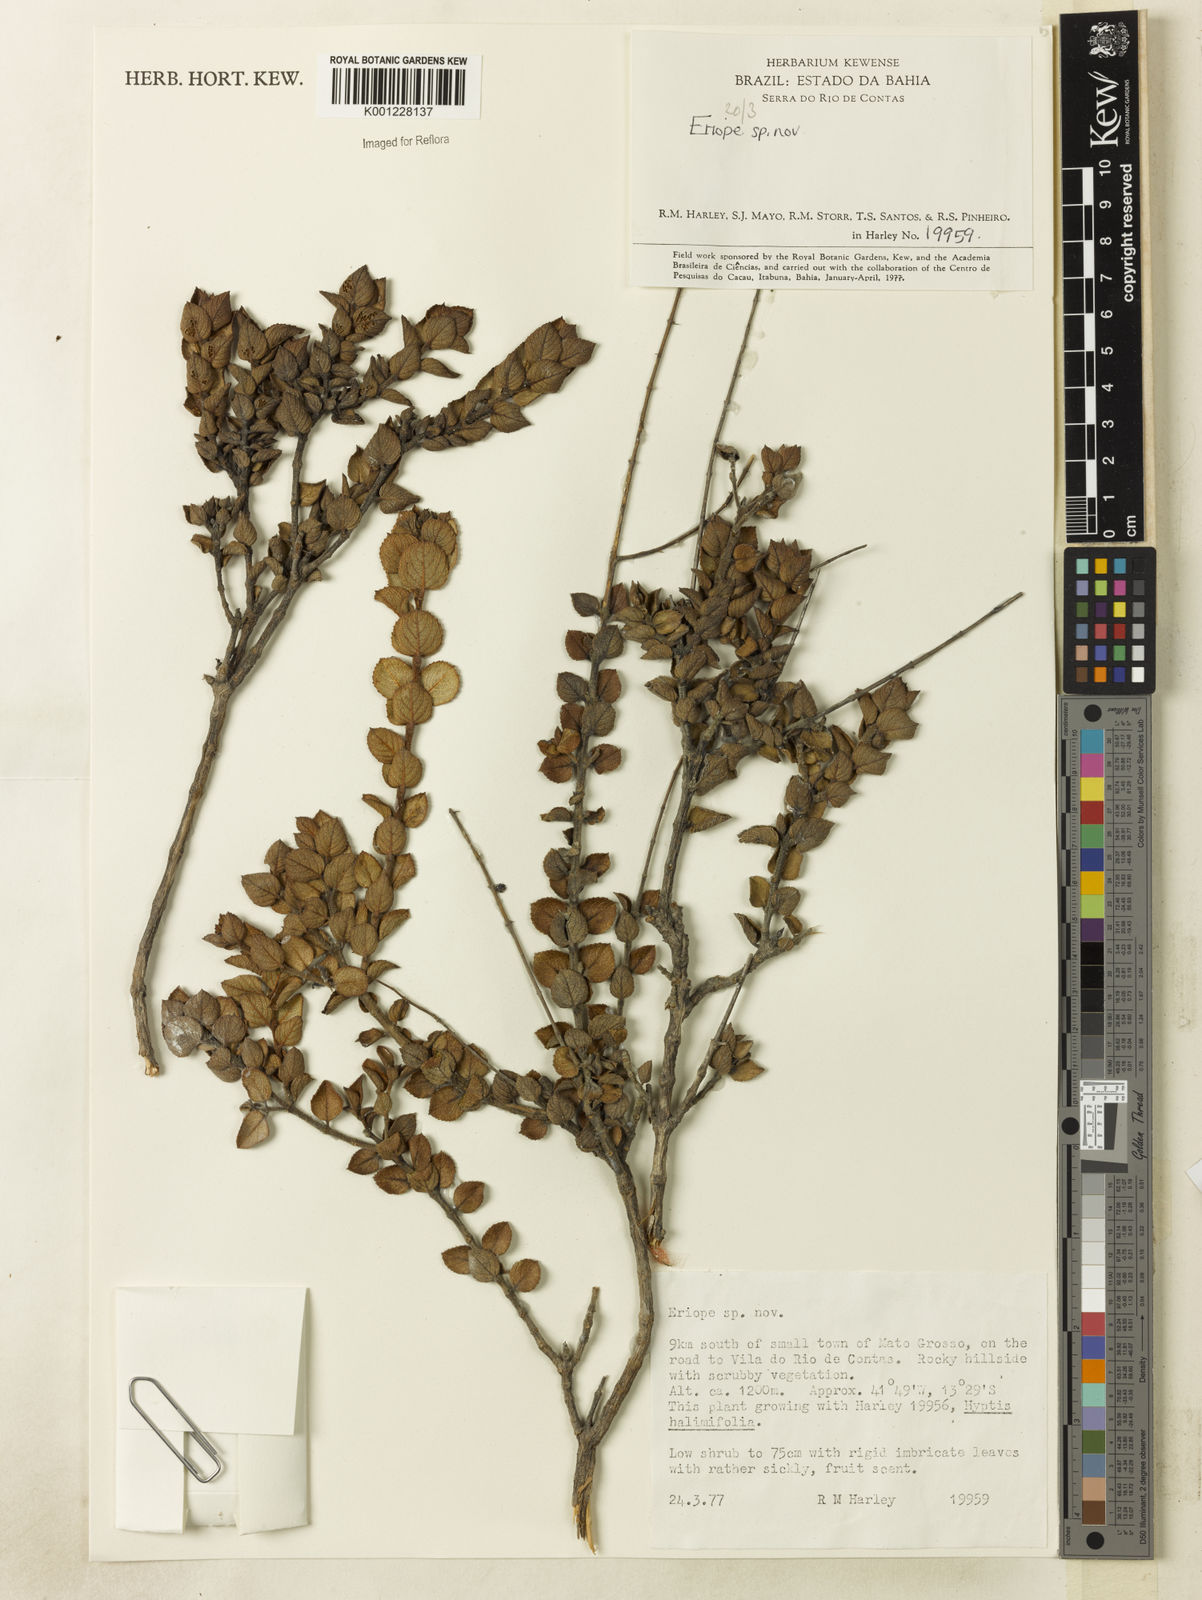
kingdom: Plantae
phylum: Tracheophyta
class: Magnoliopsida
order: Lamiales
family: Lamiaceae
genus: Eriope
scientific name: Eriope
